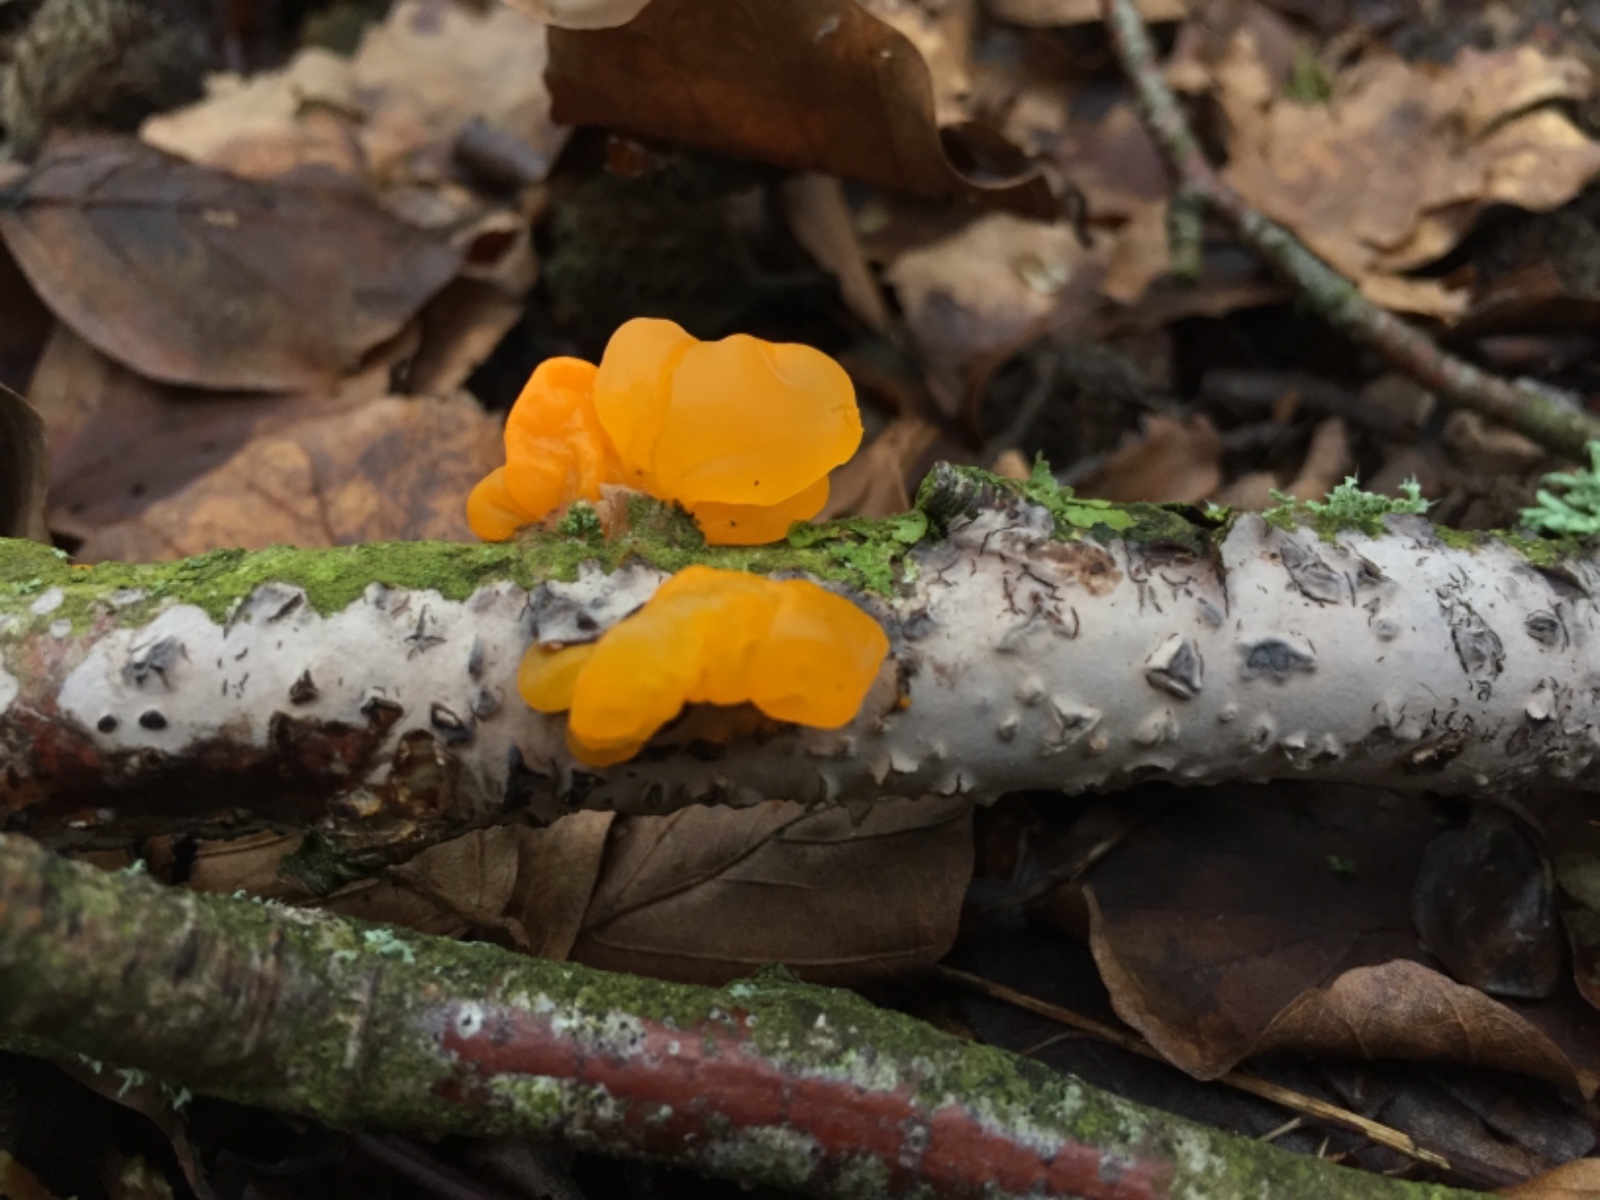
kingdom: Fungi
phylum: Basidiomycota
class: Agaricomycetes
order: Russulales
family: Peniophoraceae
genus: Peniophora
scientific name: Peniophora cinerea
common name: grå voksskind
